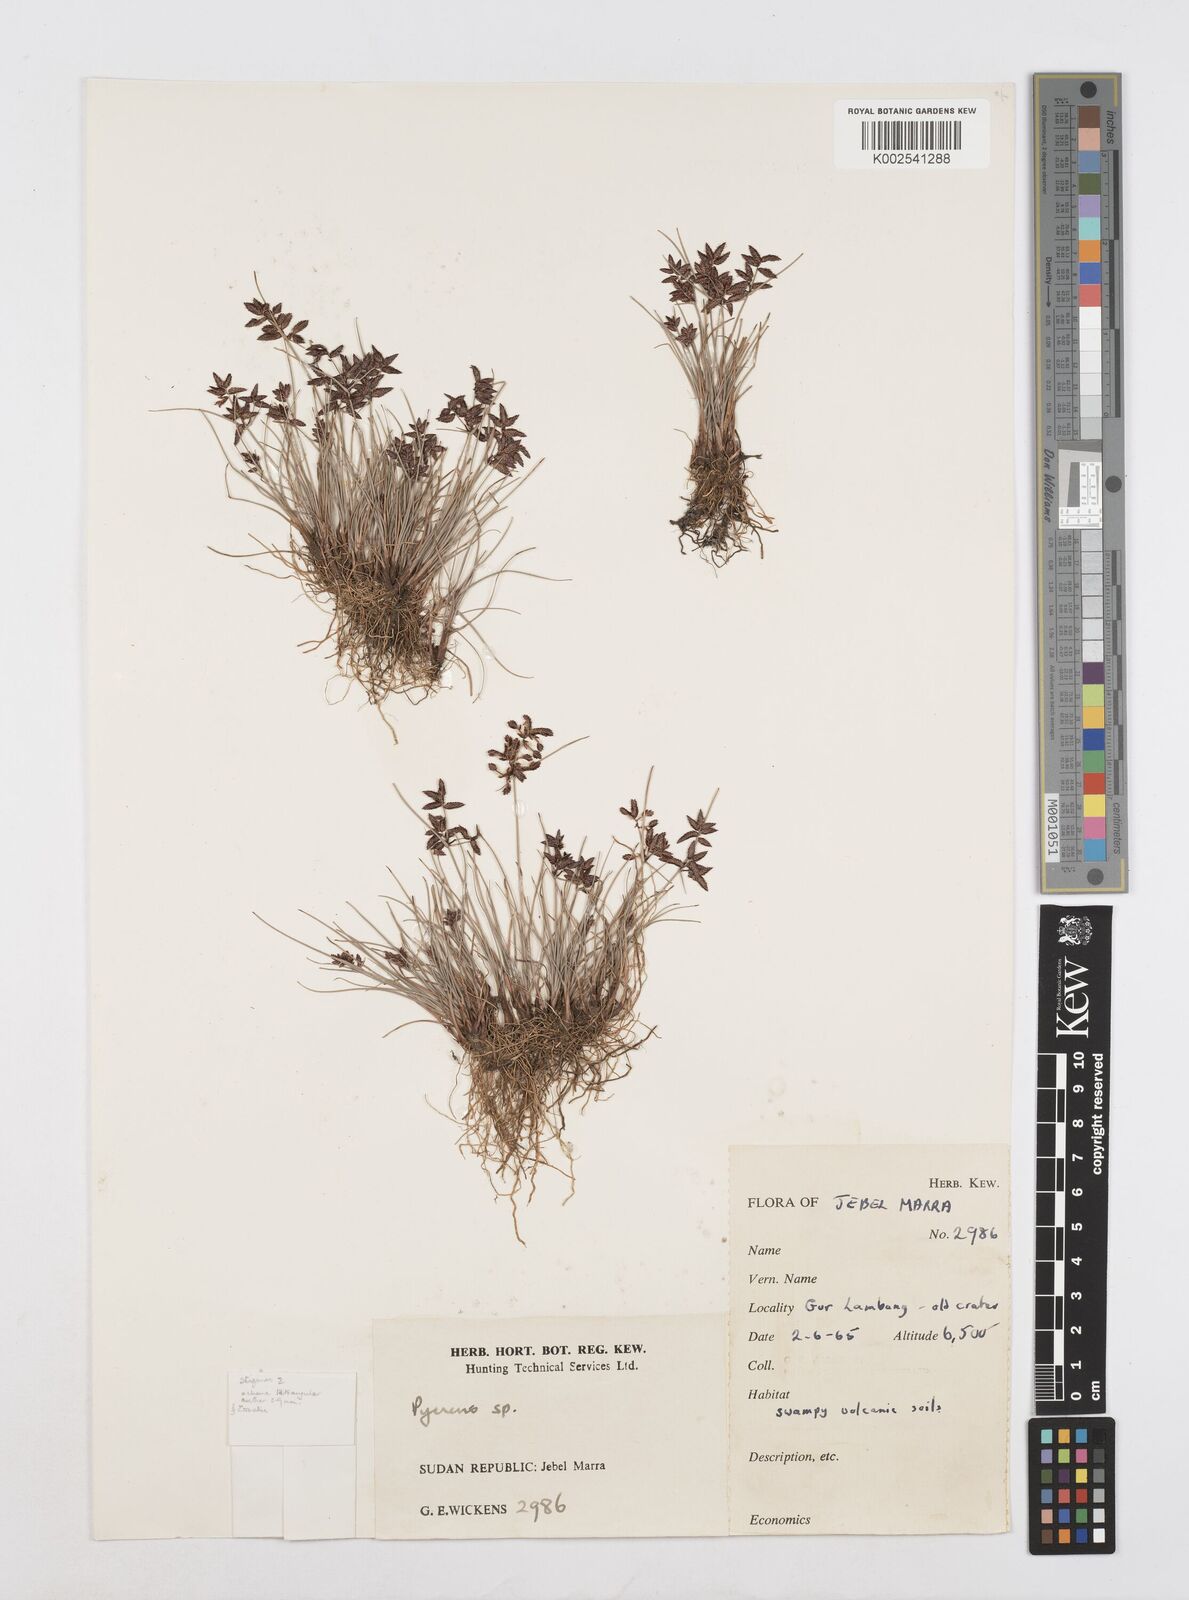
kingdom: Plantae
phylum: Tracheophyta
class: Liliopsida
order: Poales
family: Cyperaceae
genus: Cyperus
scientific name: Cyperus
